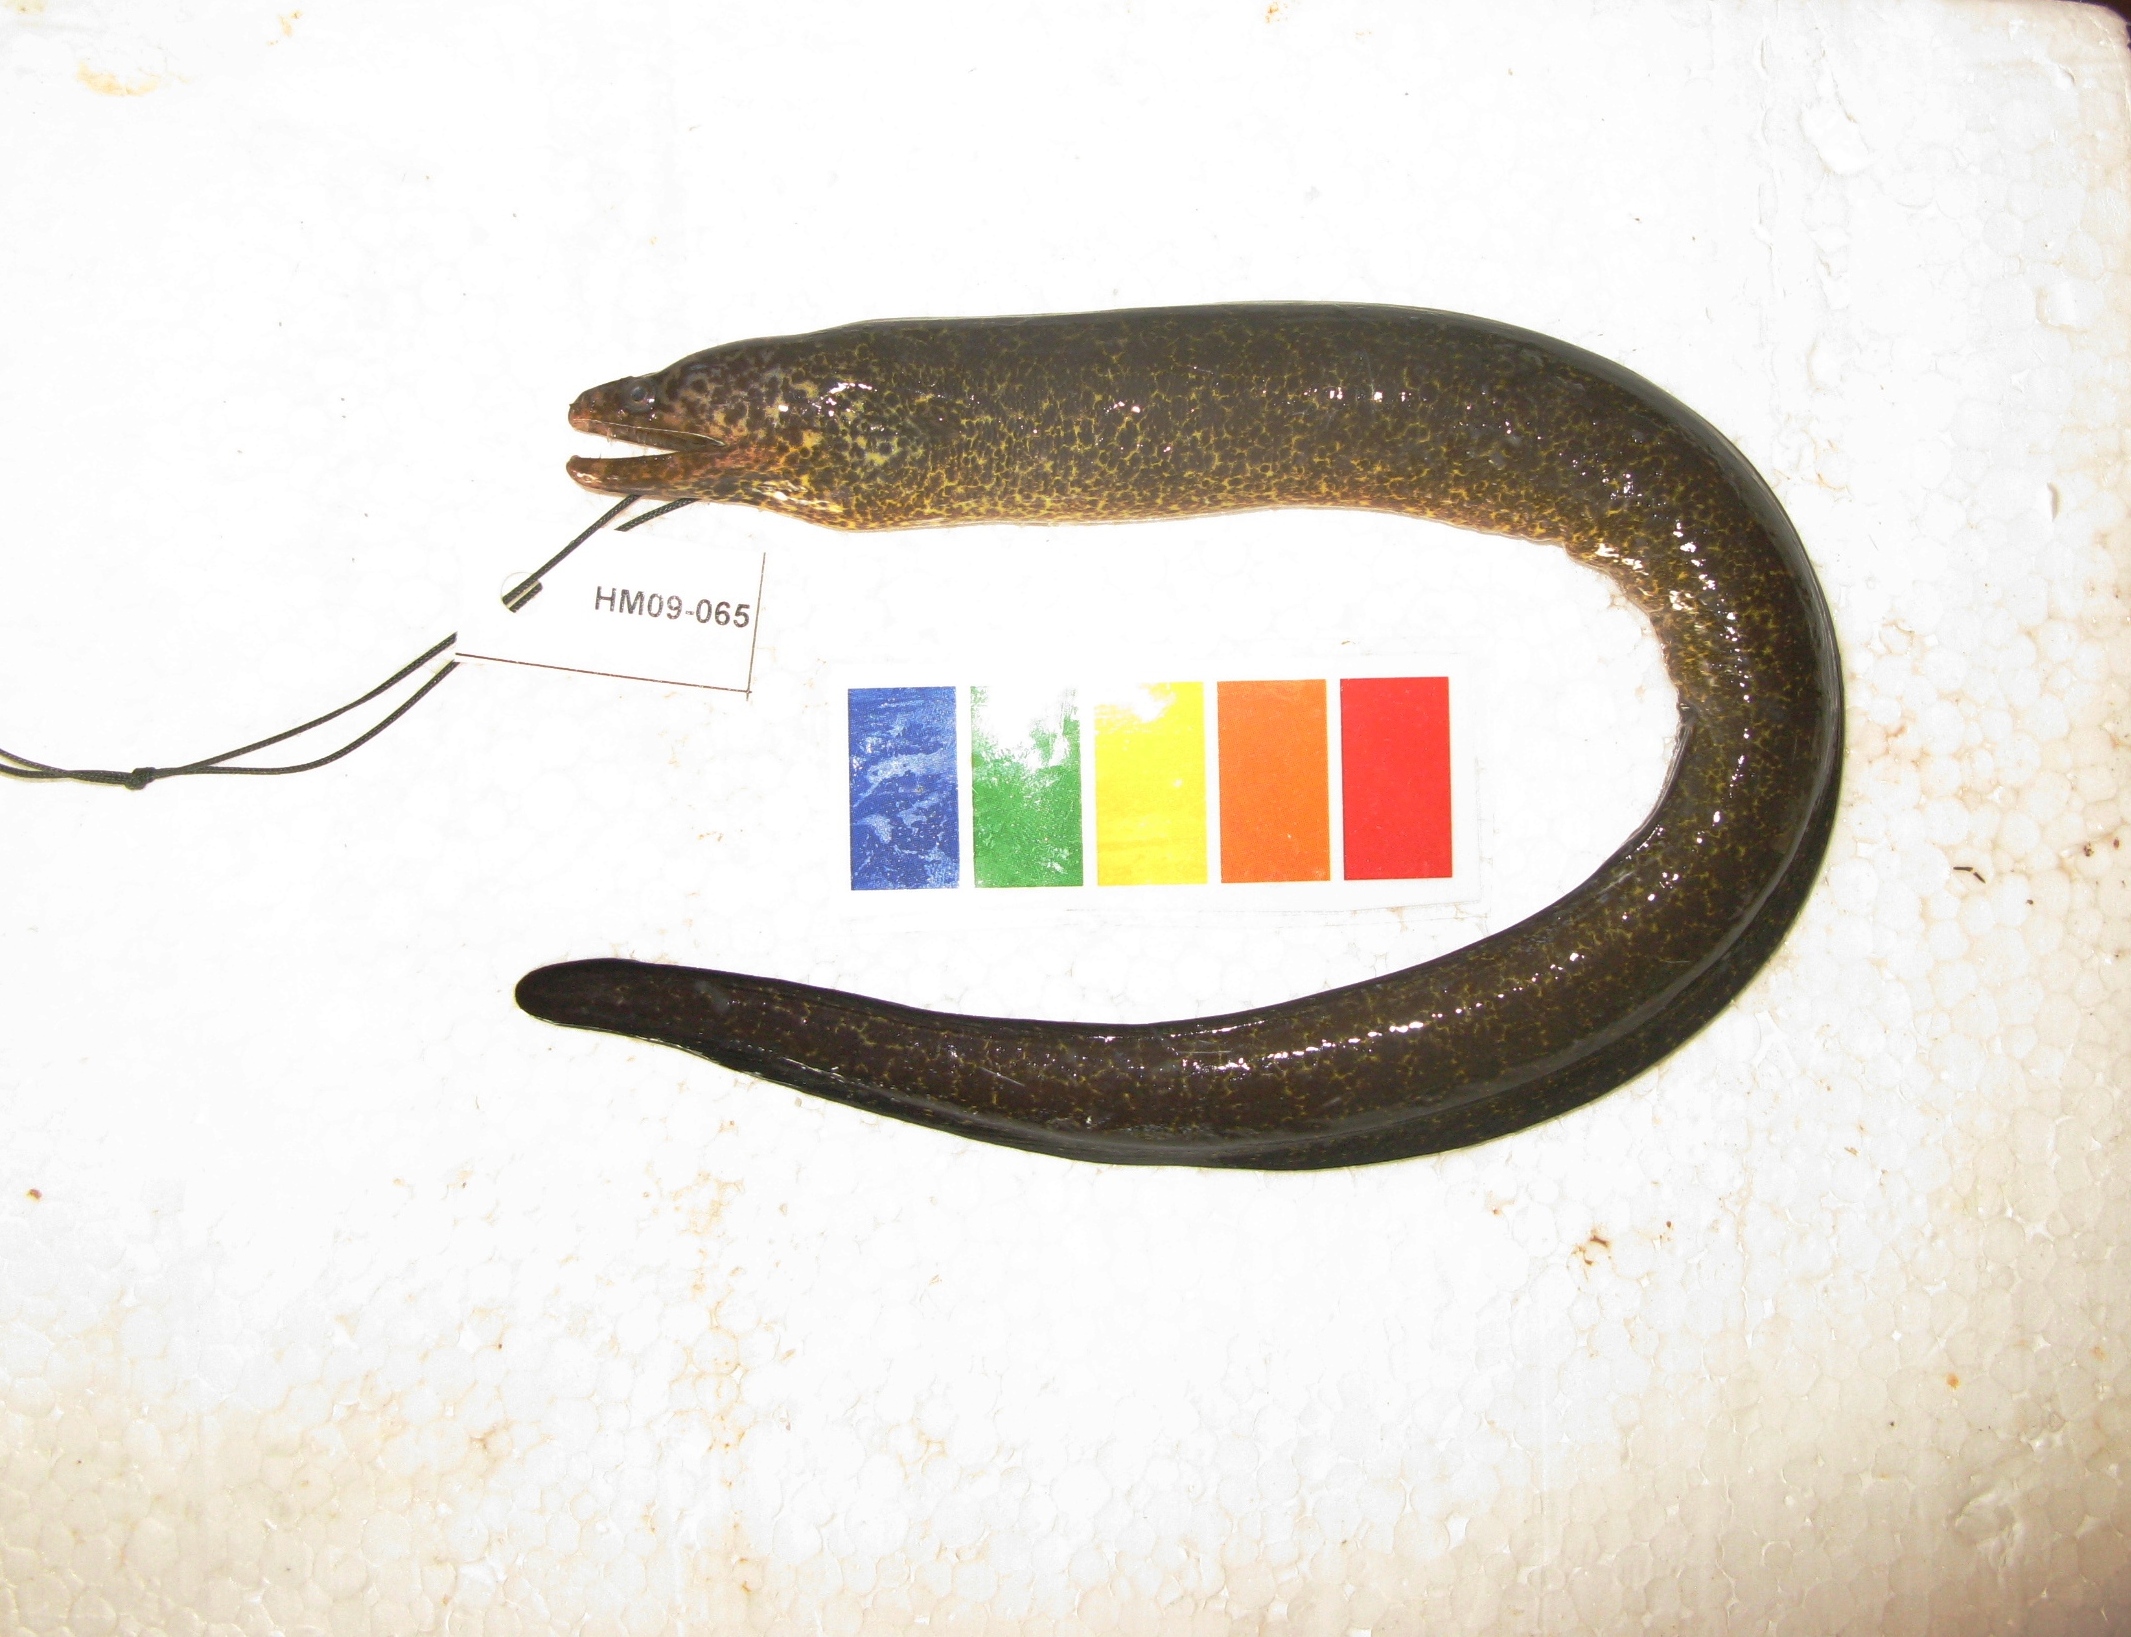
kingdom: Animalia
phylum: Chordata
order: Anguilliformes
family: Muraenidae
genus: Gymnothorax
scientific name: Gymnothorax elaineheemstrae
